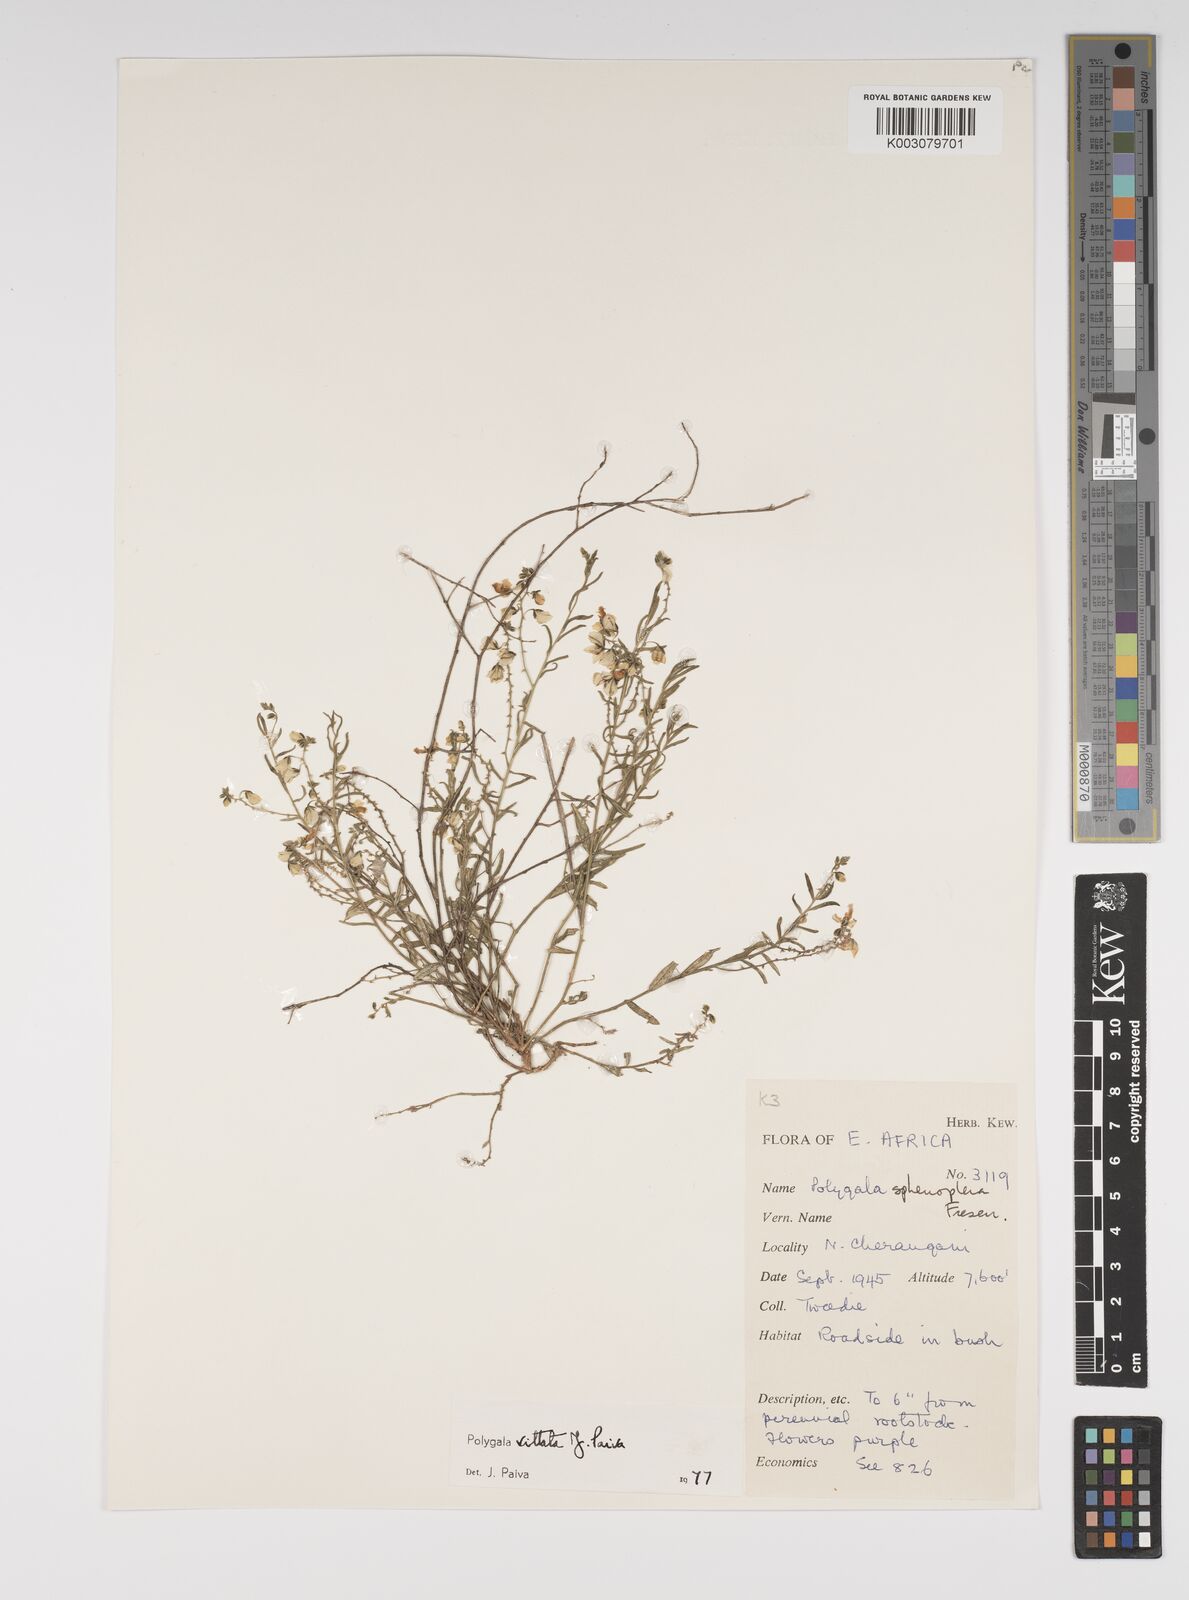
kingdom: Plantae
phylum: Tracheophyta
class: Magnoliopsida
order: Fabales
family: Polygalaceae
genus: Polygala
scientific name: Polygala vittata
